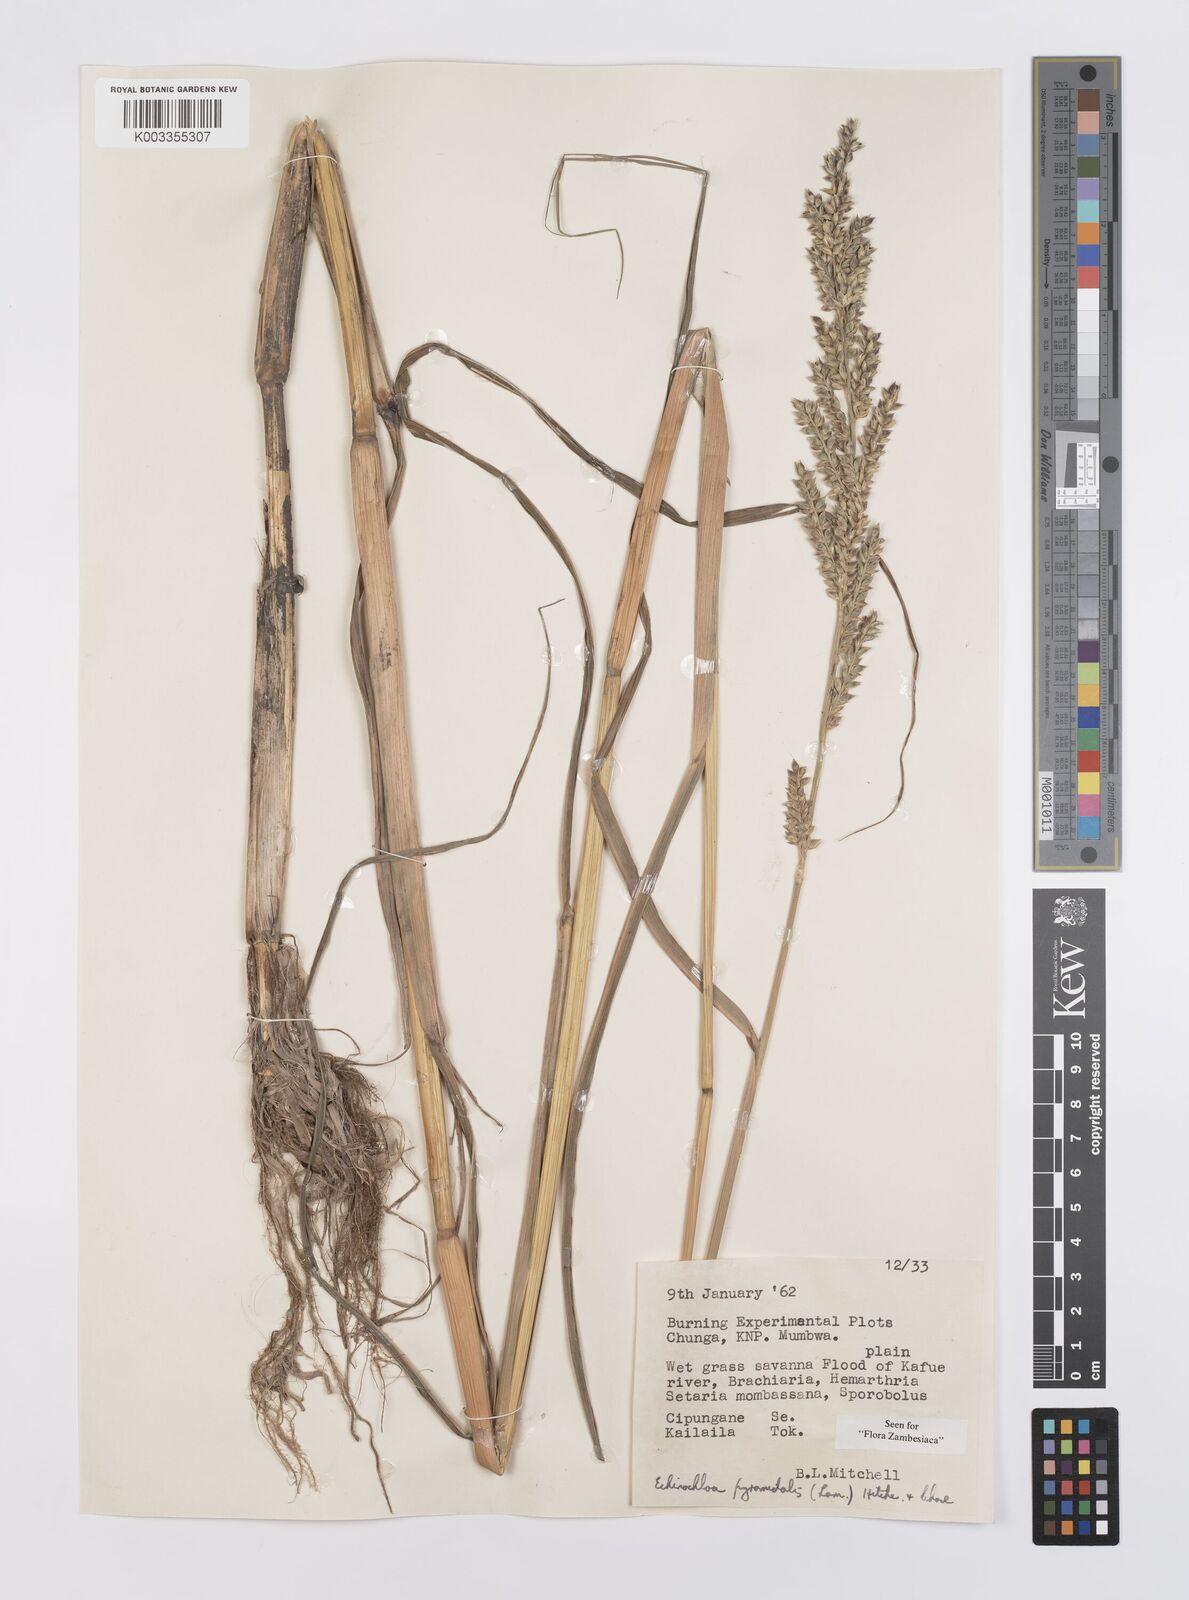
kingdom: Plantae
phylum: Tracheophyta
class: Liliopsida
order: Poales
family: Poaceae
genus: Echinochloa
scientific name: Echinochloa pyramidalis
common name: Antelope grass
